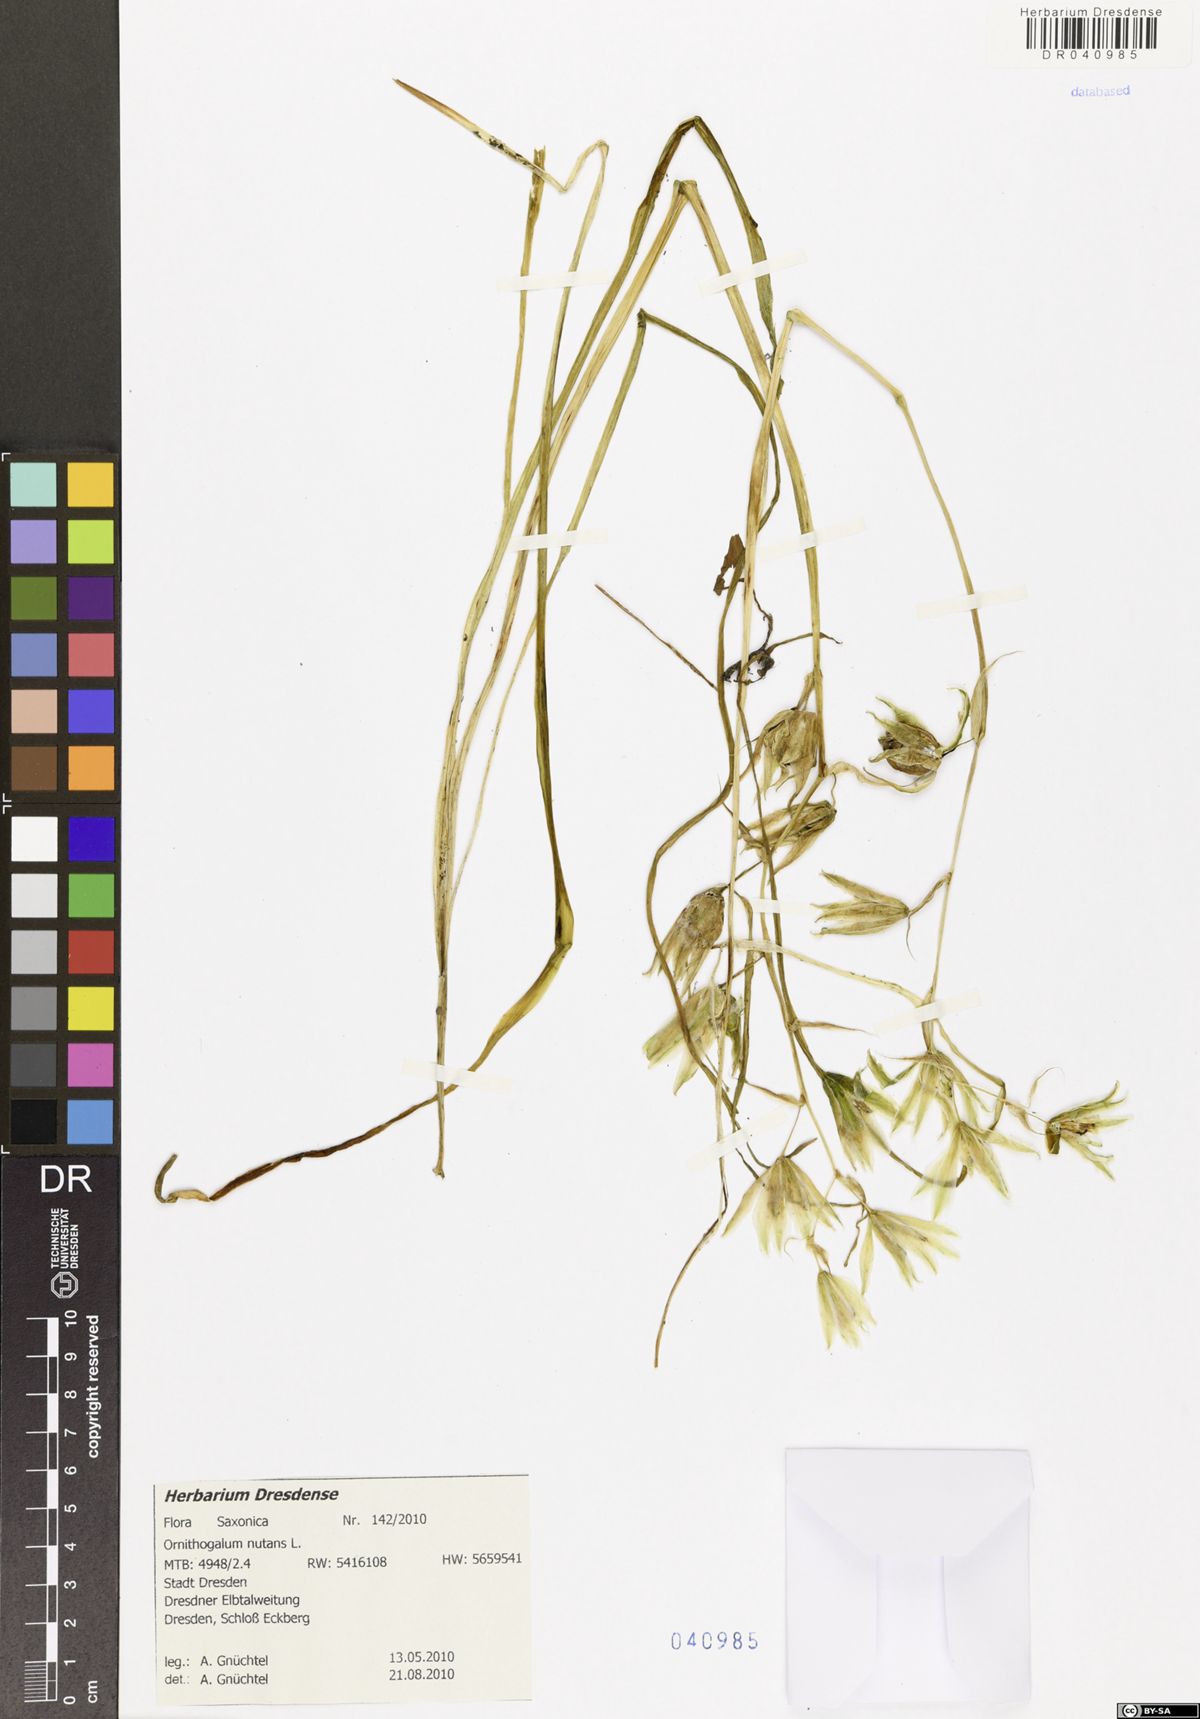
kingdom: Plantae
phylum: Tracheophyta
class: Liliopsida
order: Asparagales
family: Asparagaceae
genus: Ornithogalum
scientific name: Ornithogalum nutans
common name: Drooping star-of-bethlehem
